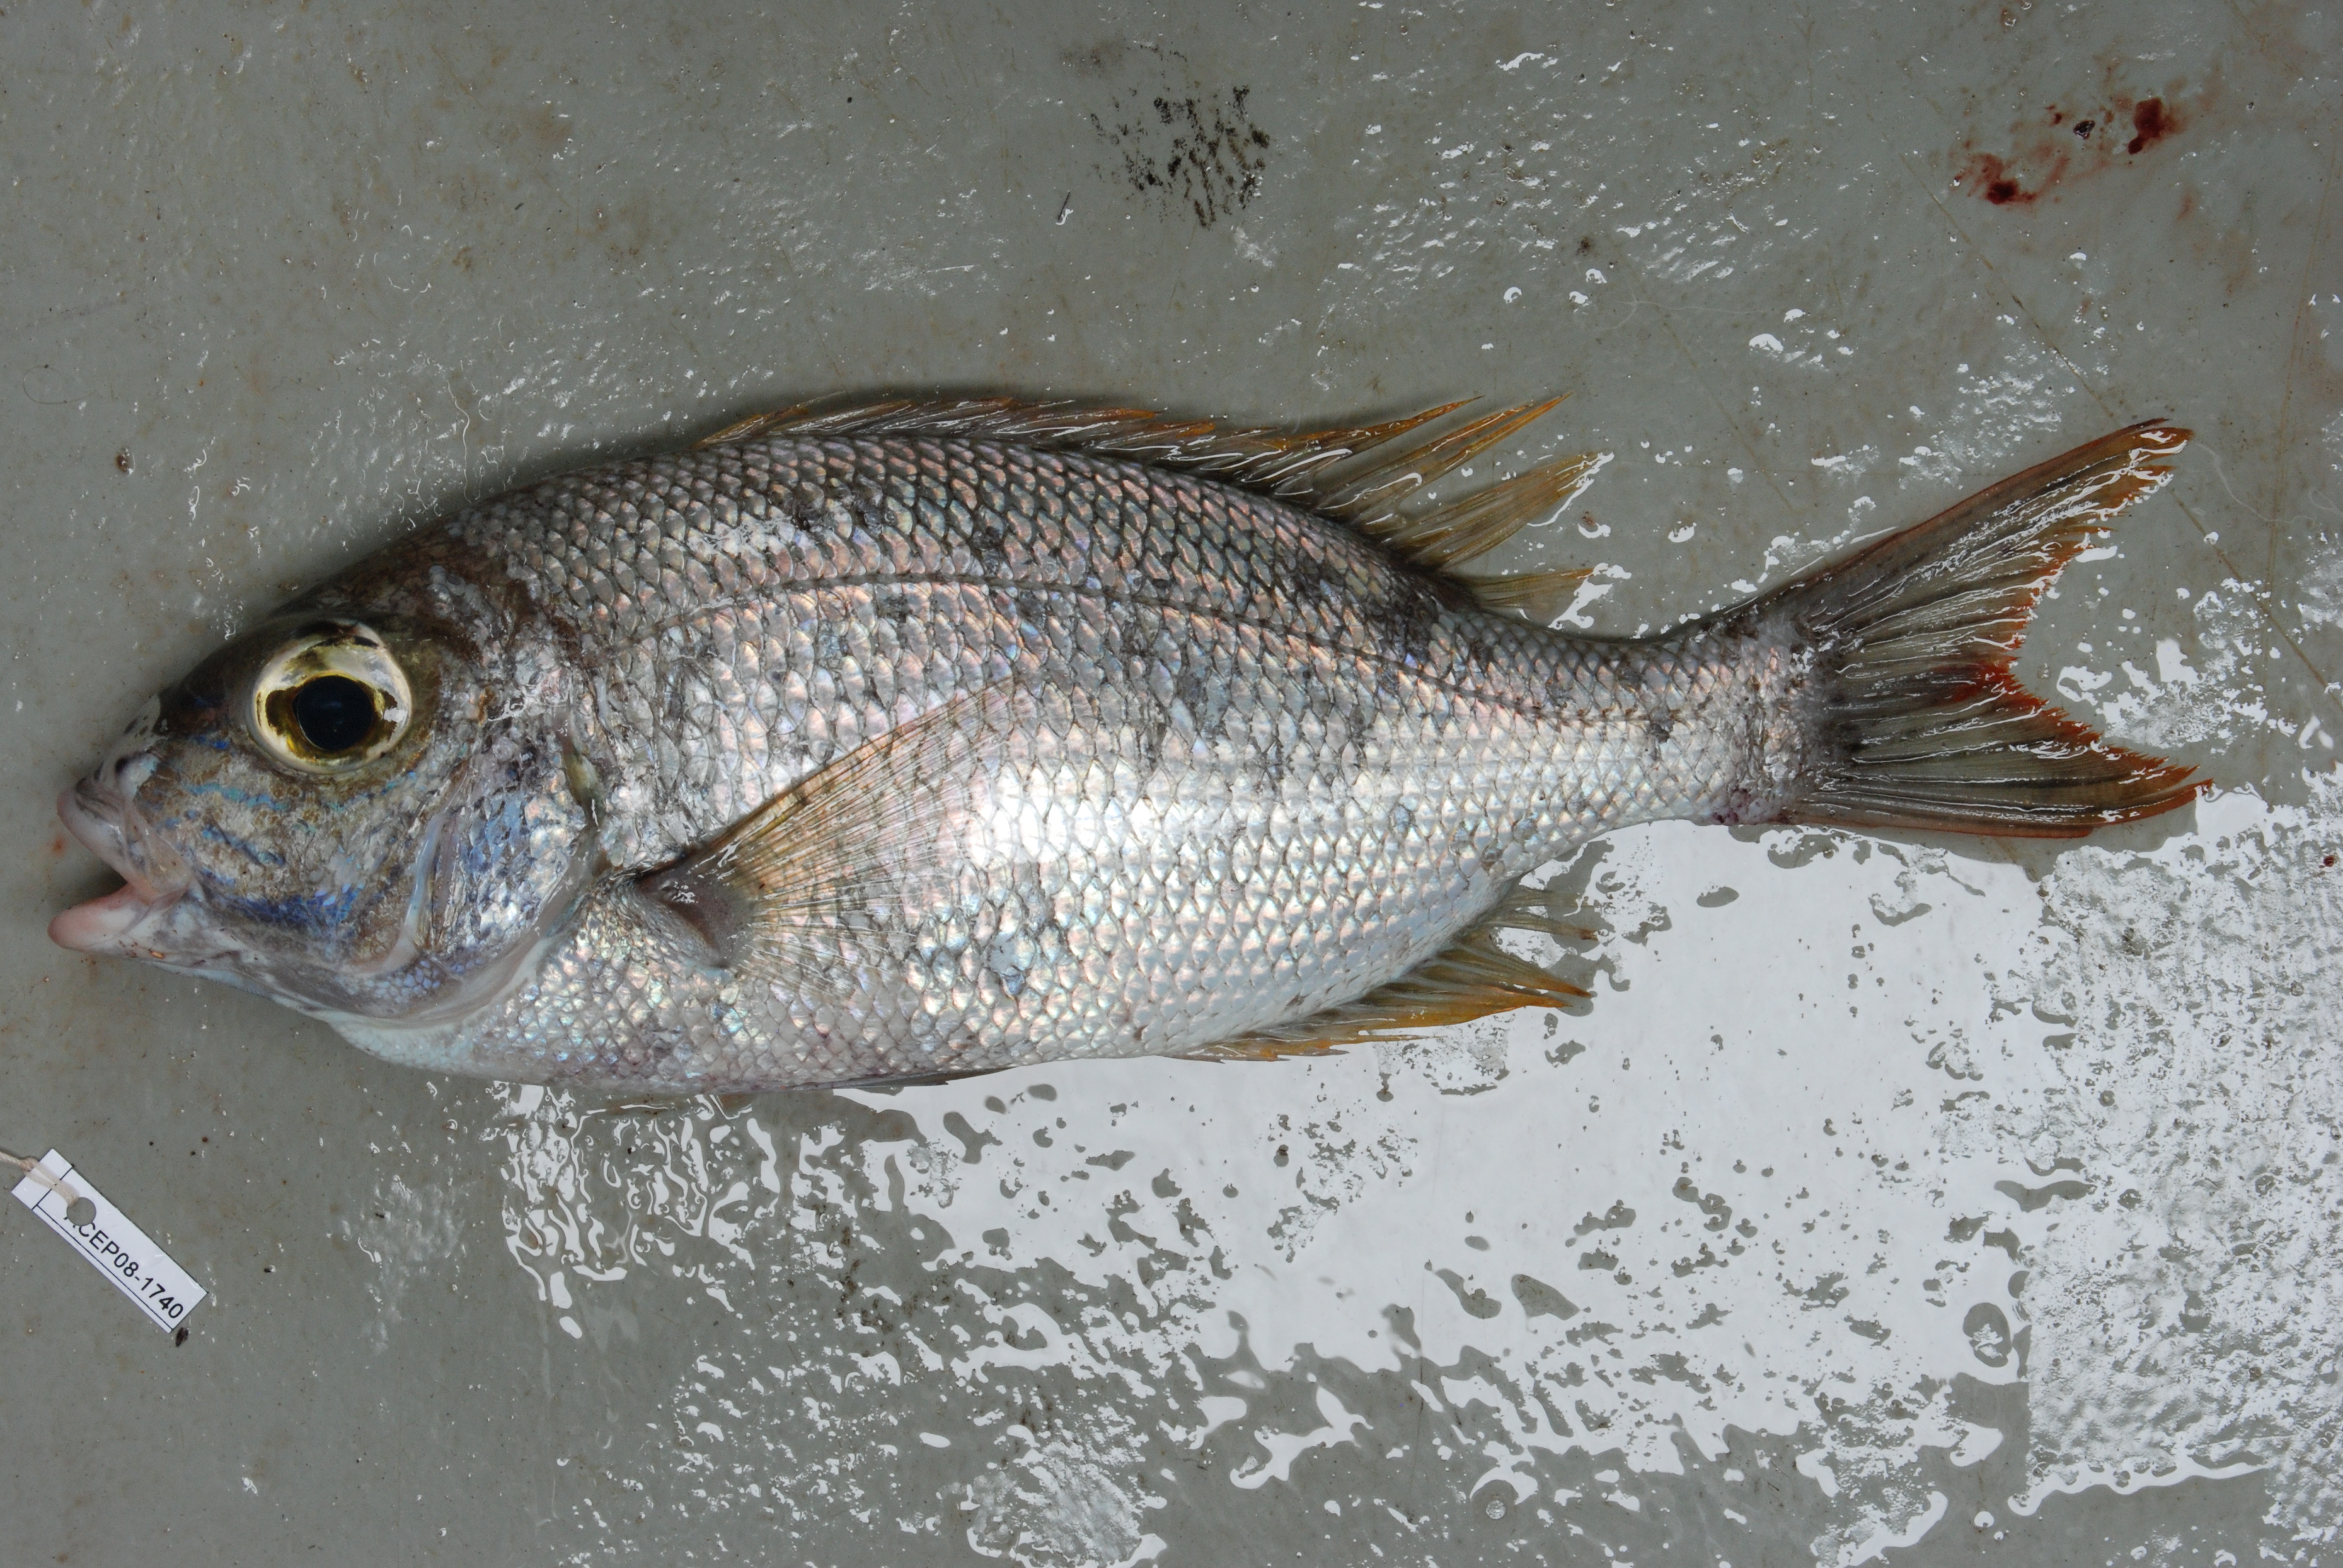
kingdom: Animalia
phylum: Chordata
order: Perciformes
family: Lethrinidae
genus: Gymnocranius
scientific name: Gymnocranius grandoculis
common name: Blue-lined large-eye bream
